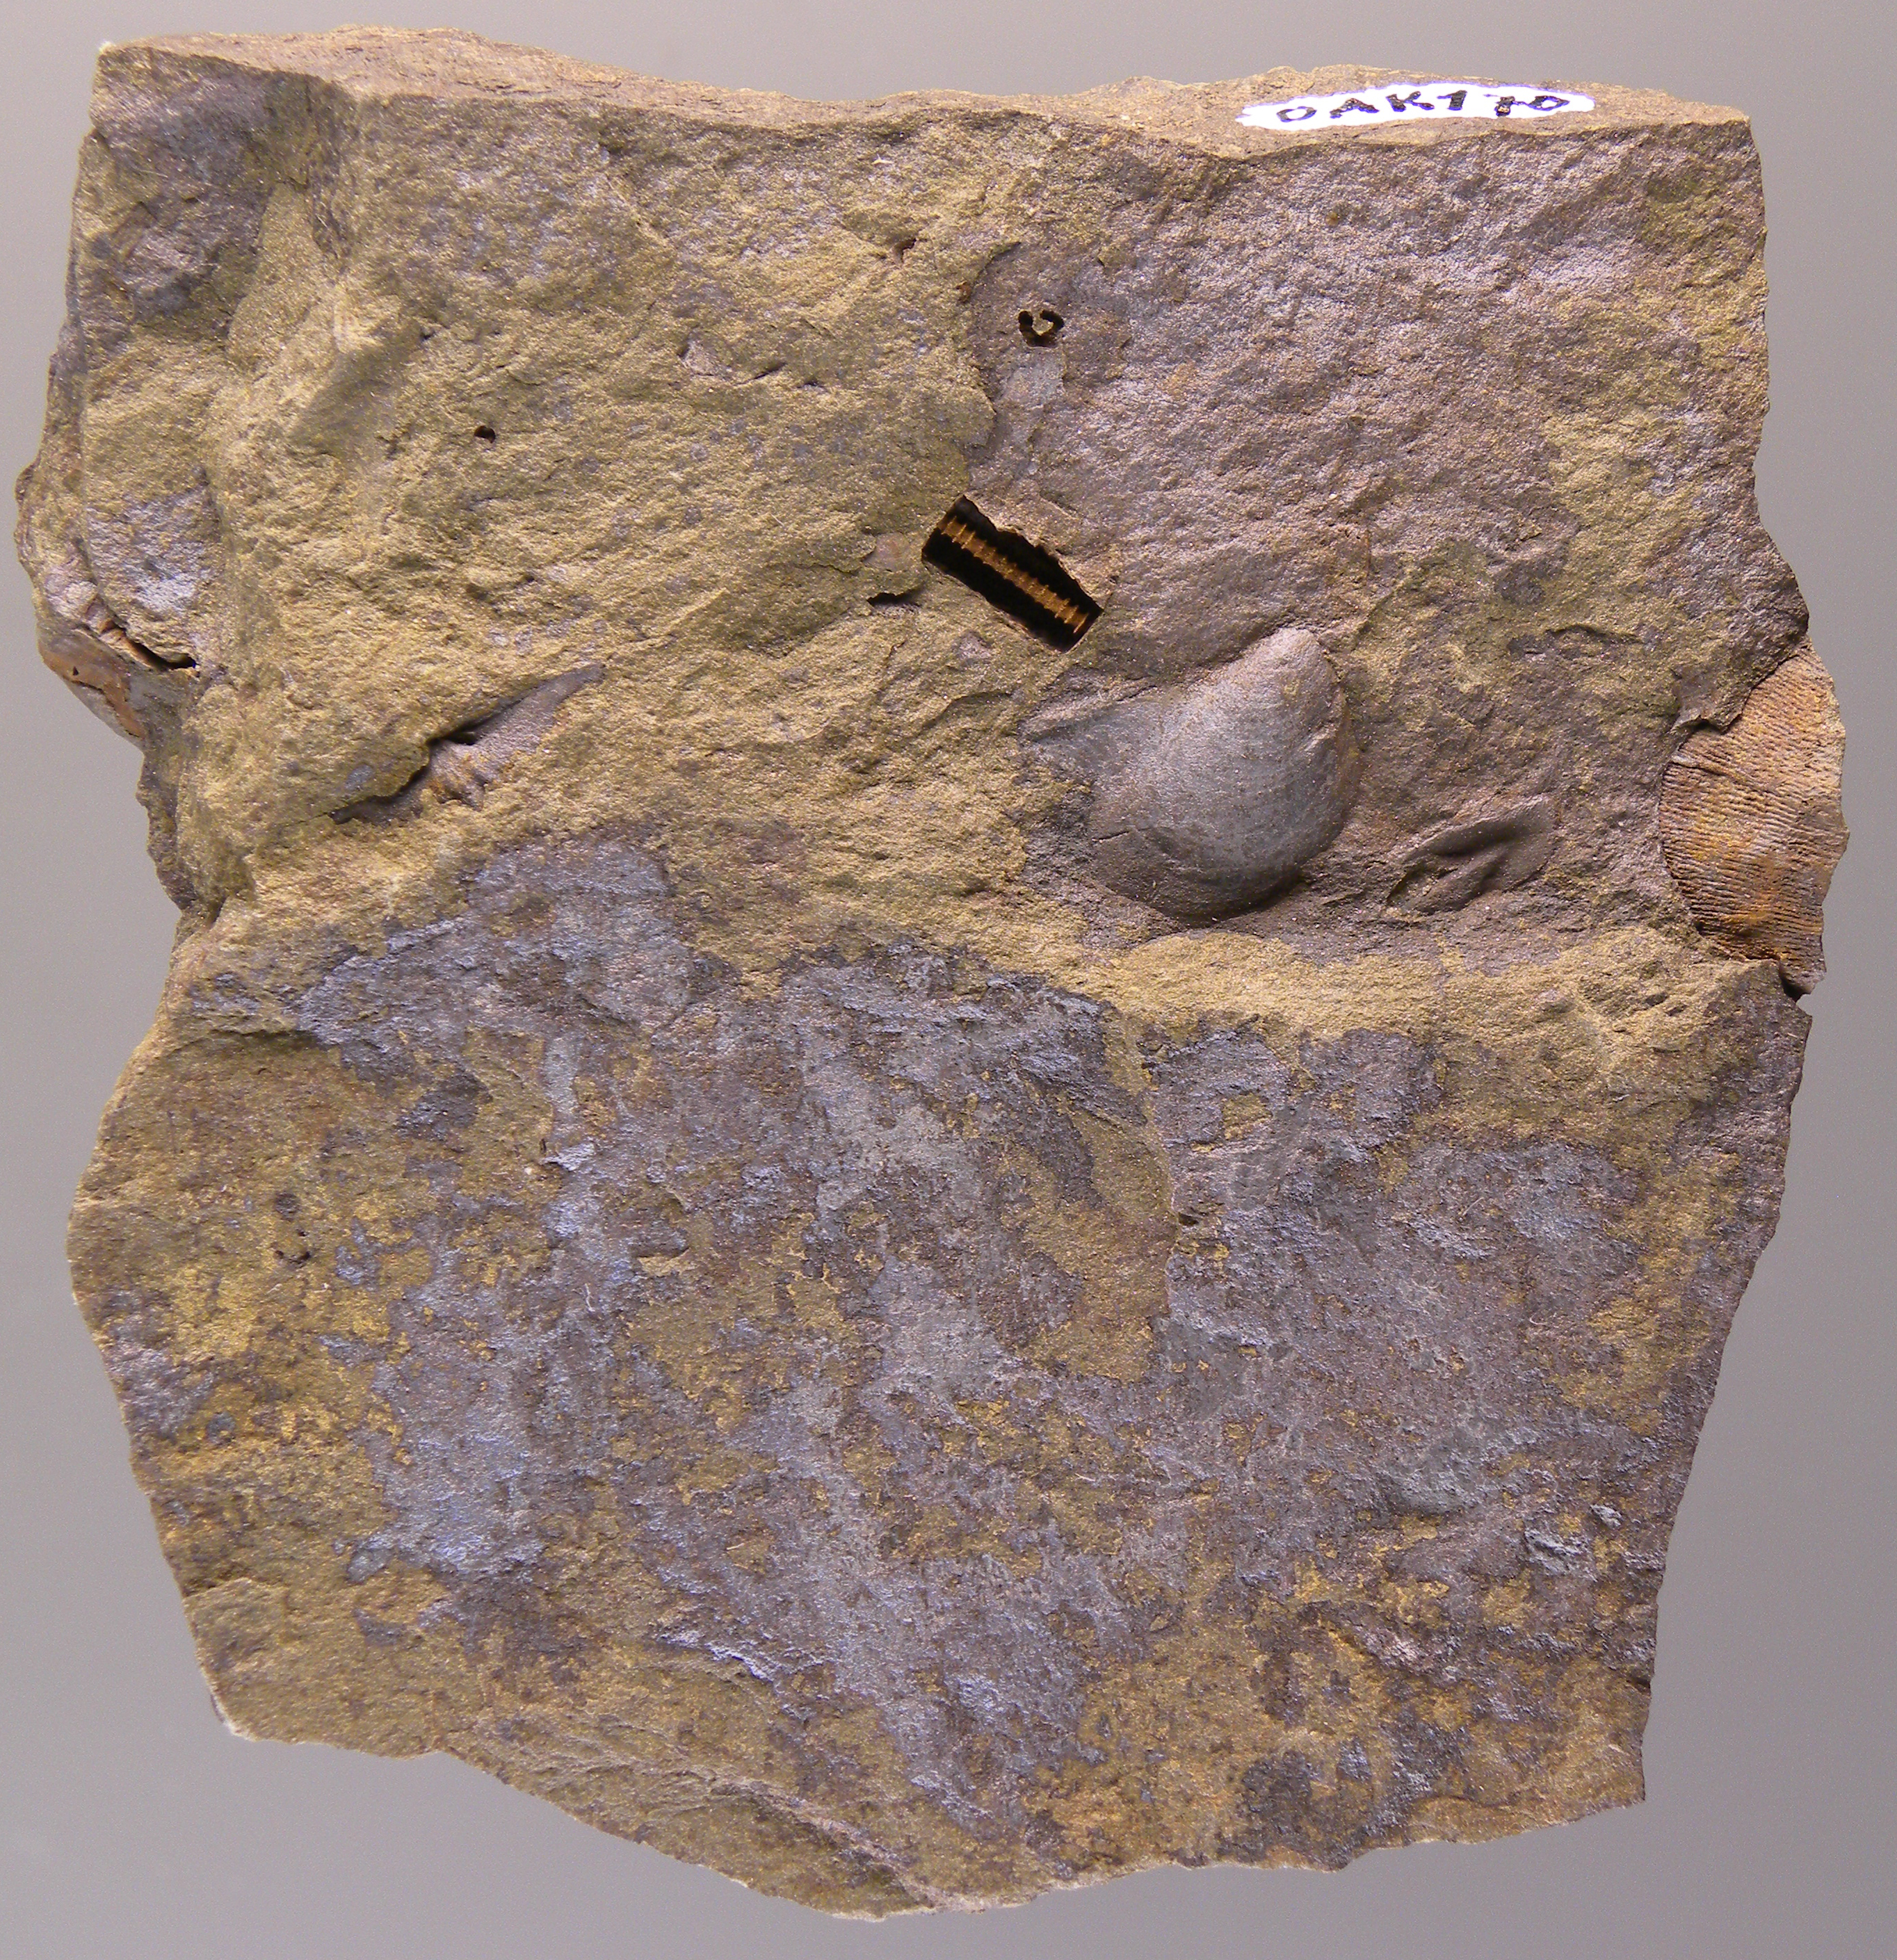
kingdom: Animalia
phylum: Mollusca
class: Bivalvia
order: Ostreida
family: Pterineidae
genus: Leptodesma
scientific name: Leptodesma
